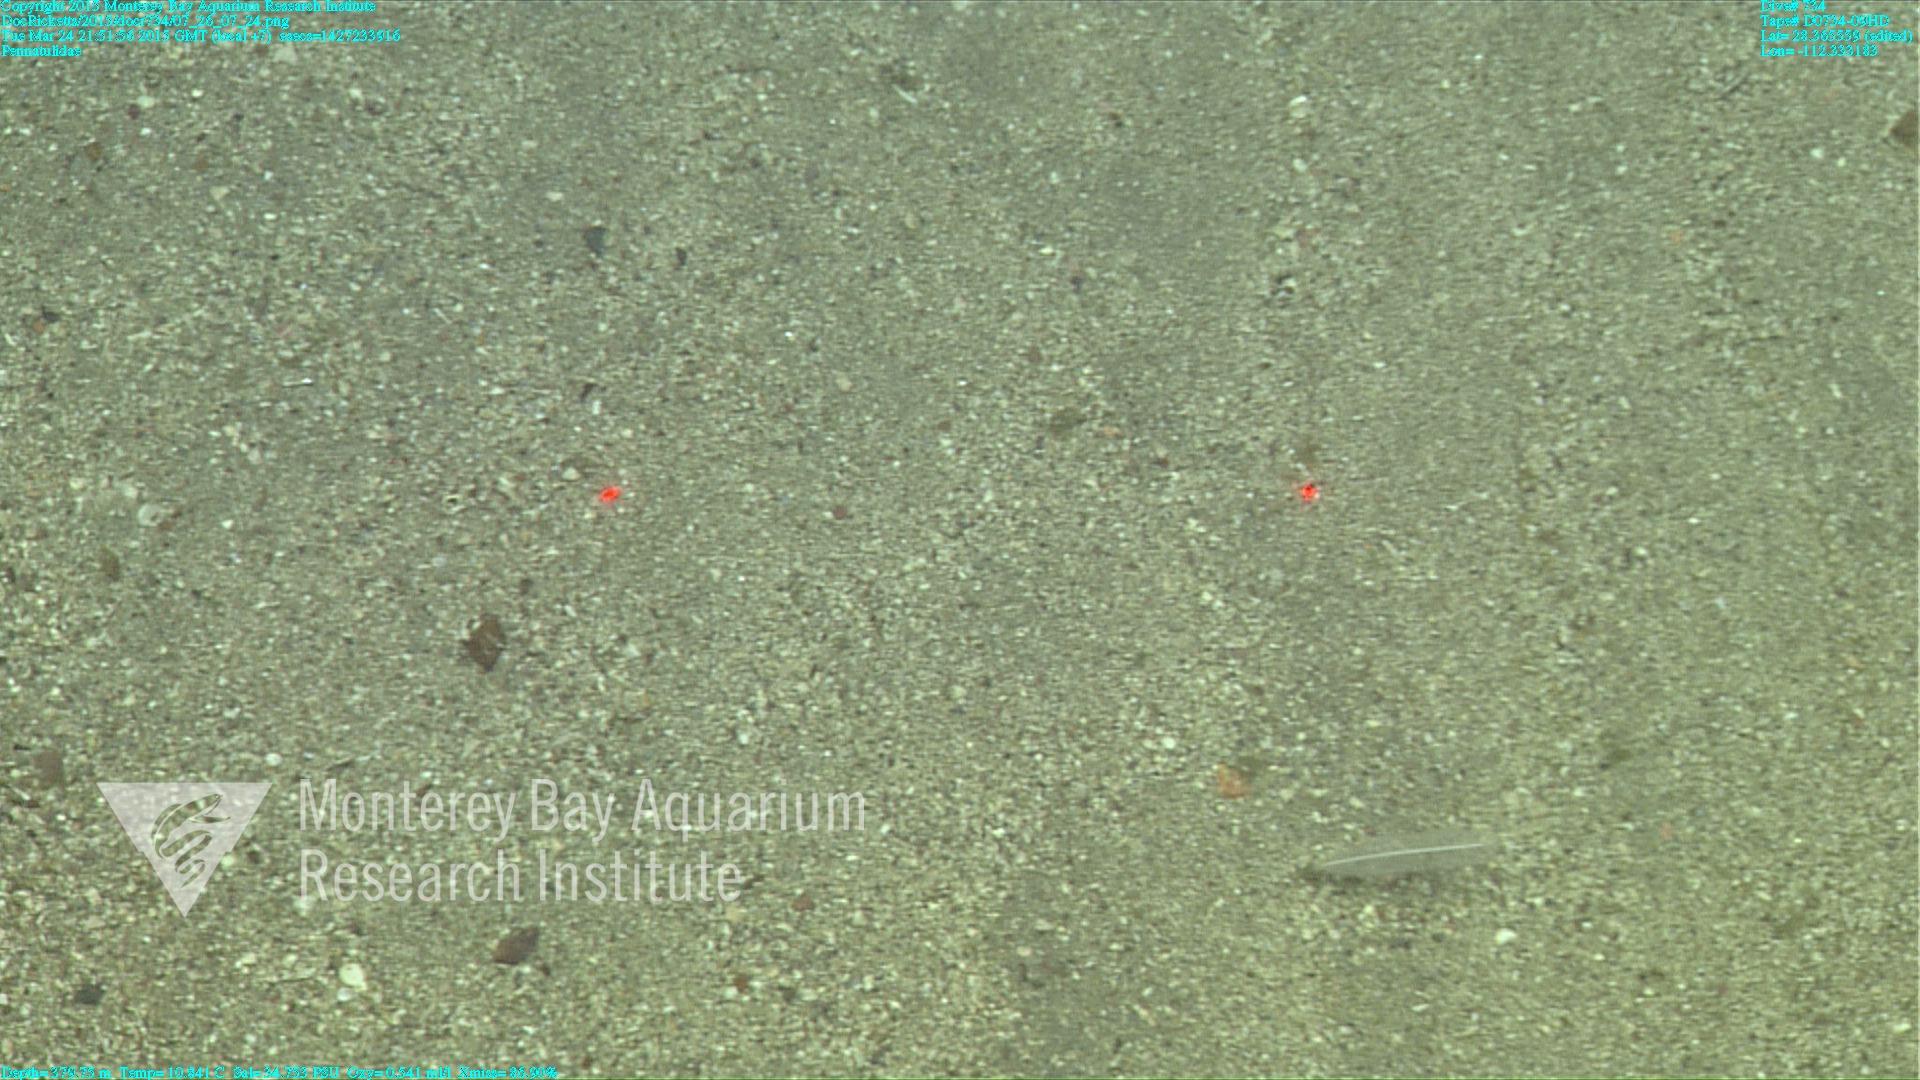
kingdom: Animalia
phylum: Cnidaria
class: Anthozoa
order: Scleralcyonacea
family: Pennatulidae
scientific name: Pennatulidae
